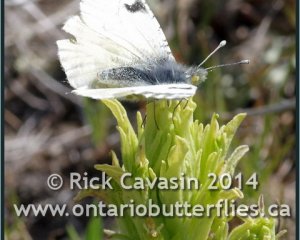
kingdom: Animalia
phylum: Arthropoda
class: Insecta
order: Lepidoptera
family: Pieridae
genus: Euchloe
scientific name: Euchloe ausonides
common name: Large Marble
